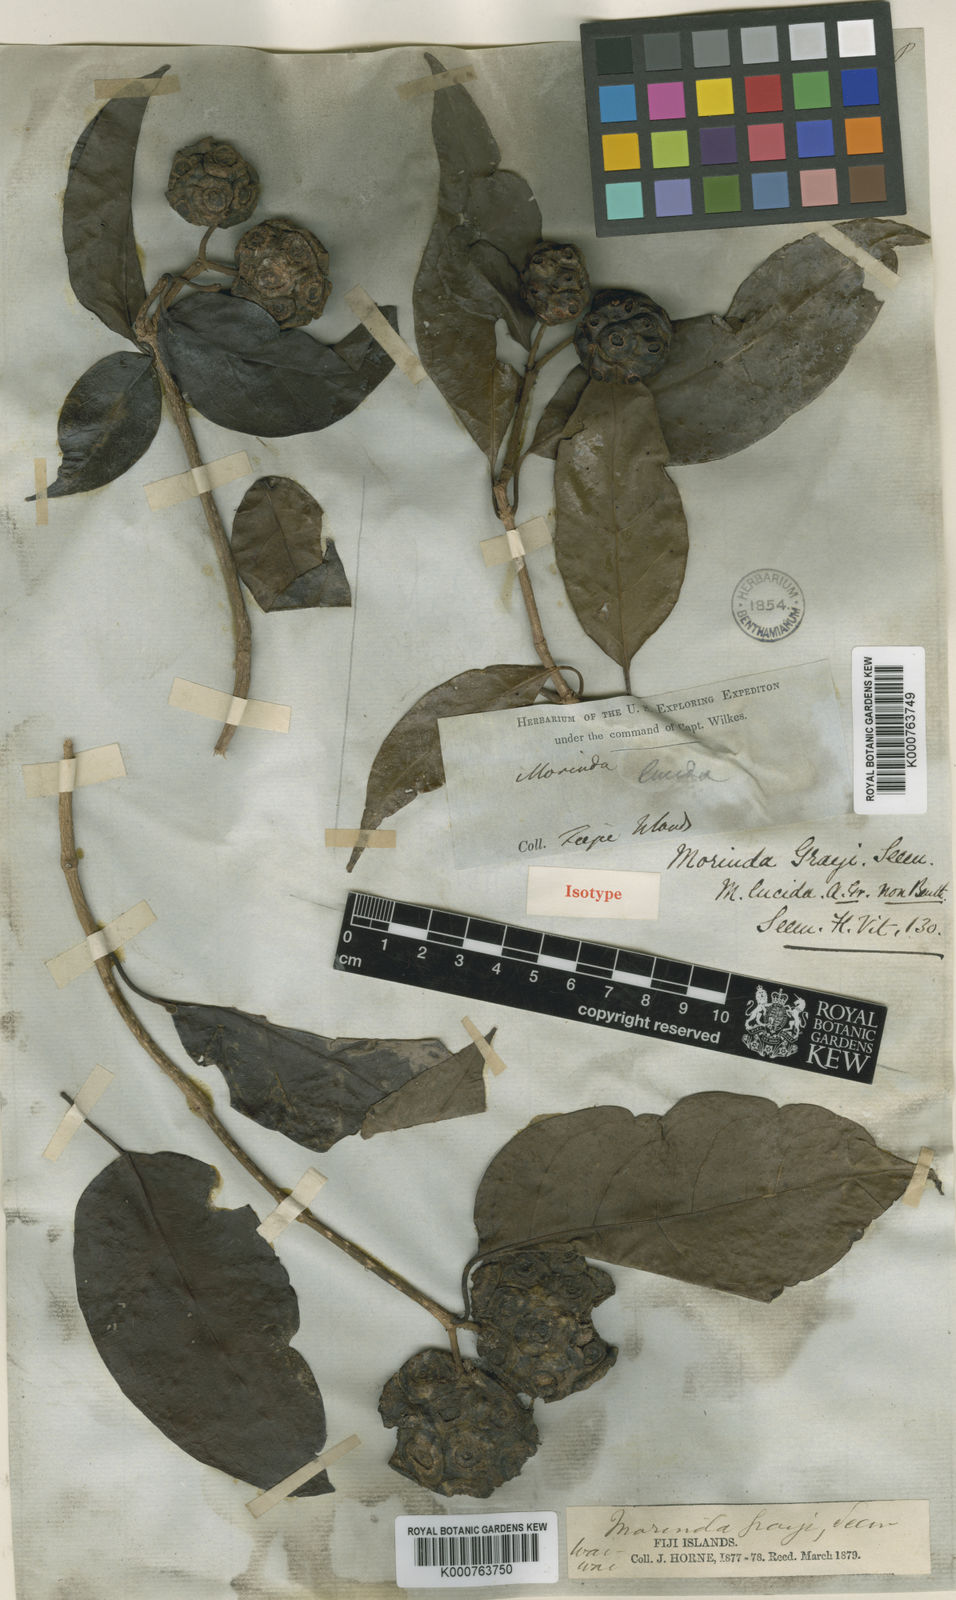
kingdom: Plantae
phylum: Tracheophyta
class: Magnoliopsida
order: Gentianales
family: Rubiaceae
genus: Gynochthodes
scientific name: Gynochthodes grayi
